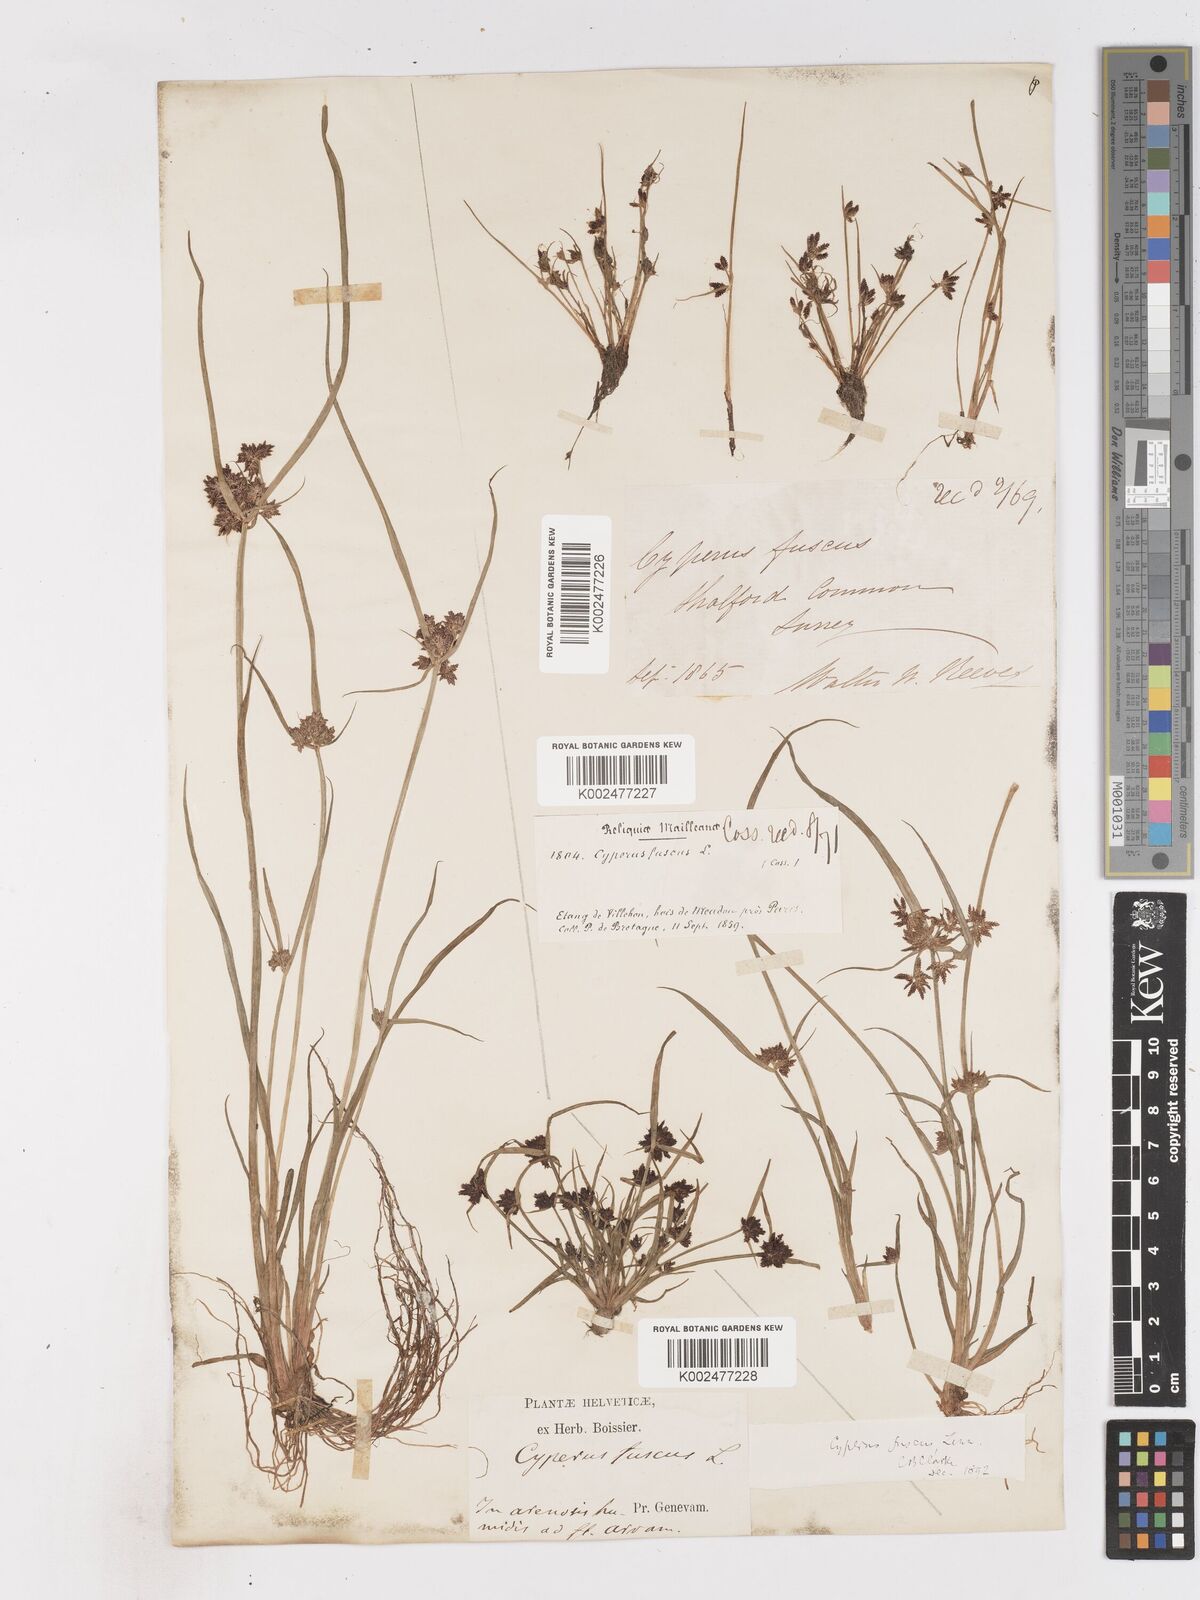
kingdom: Plantae
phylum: Tracheophyta
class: Liliopsida
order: Poales
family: Cyperaceae
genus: Cyperus
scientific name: Cyperus fuscus
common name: Brown galingale
